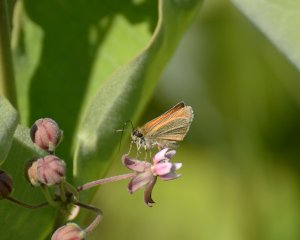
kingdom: Animalia
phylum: Arthropoda
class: Insecta
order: Lepidoptera
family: Hesperiidae
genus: Thymelicus
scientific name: Thymelicus lineola
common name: European Skipper
